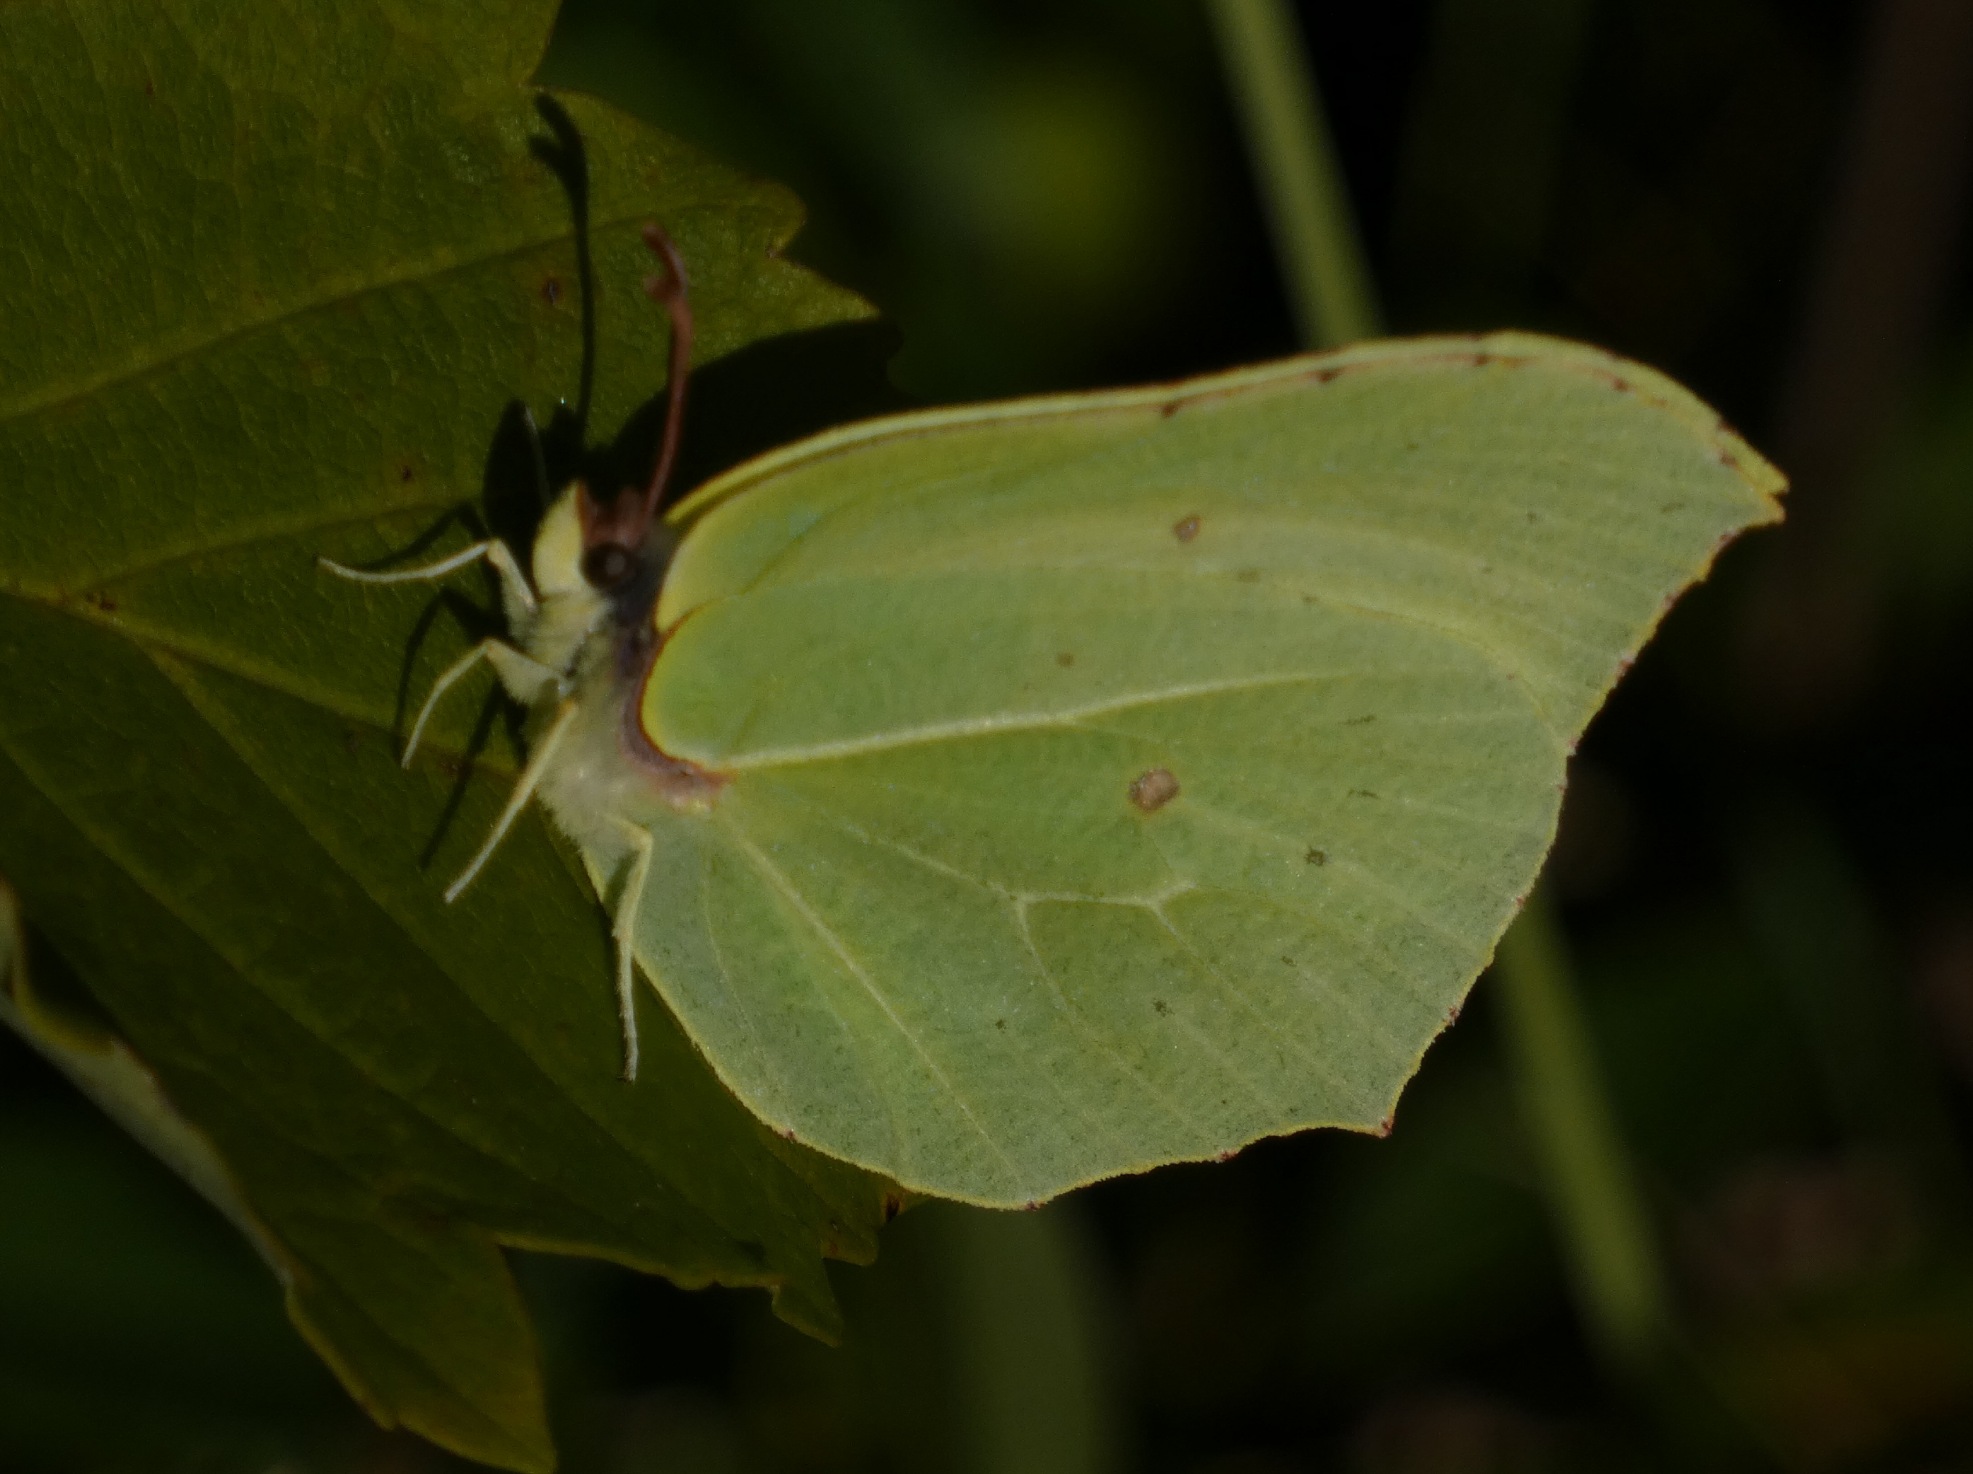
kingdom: Animalia
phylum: Arthropoda
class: Insecta
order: Lepidoptera
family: Pieridae
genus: Gonepteryx
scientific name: Gonepteryx rhamni
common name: Citronsommerfugl
